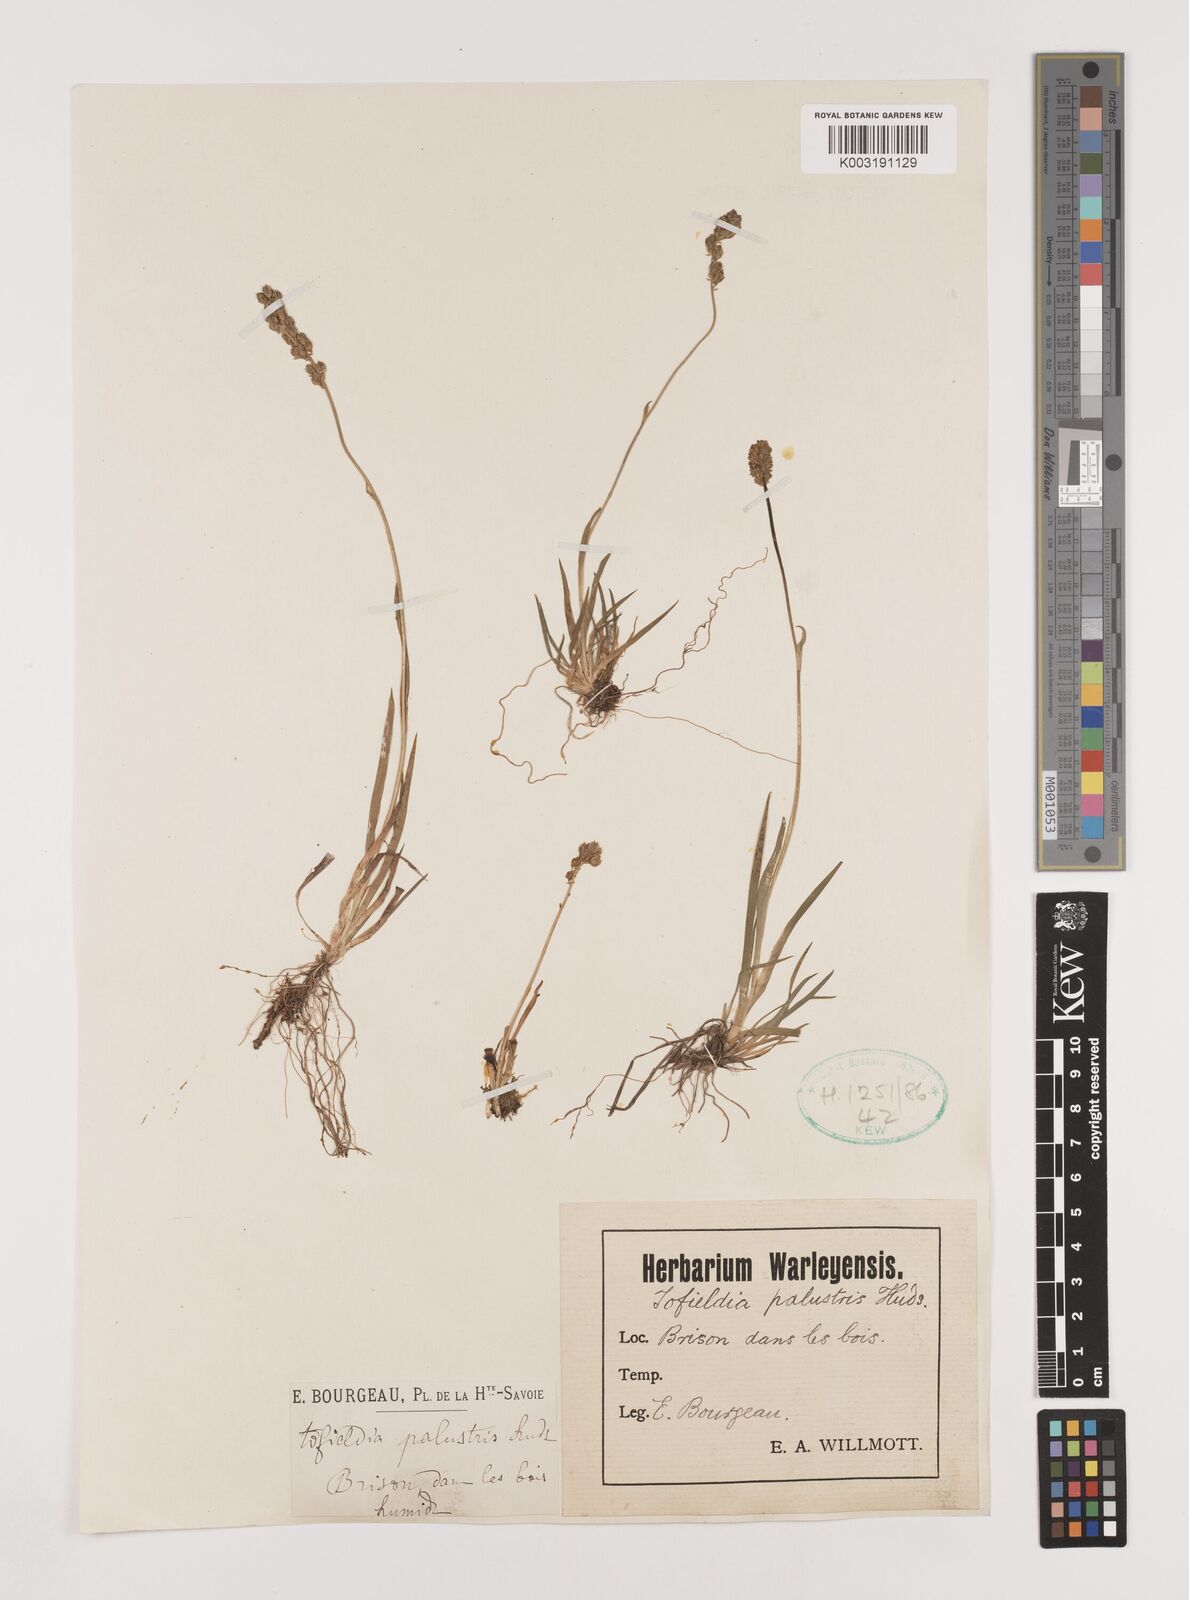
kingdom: Plantae
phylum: Tracheophyta
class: Liliopsida
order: Alismatales
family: Tofieldiaceae
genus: Tofieldia
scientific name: Tofieldia pusilla
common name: Scottish false asphodel
